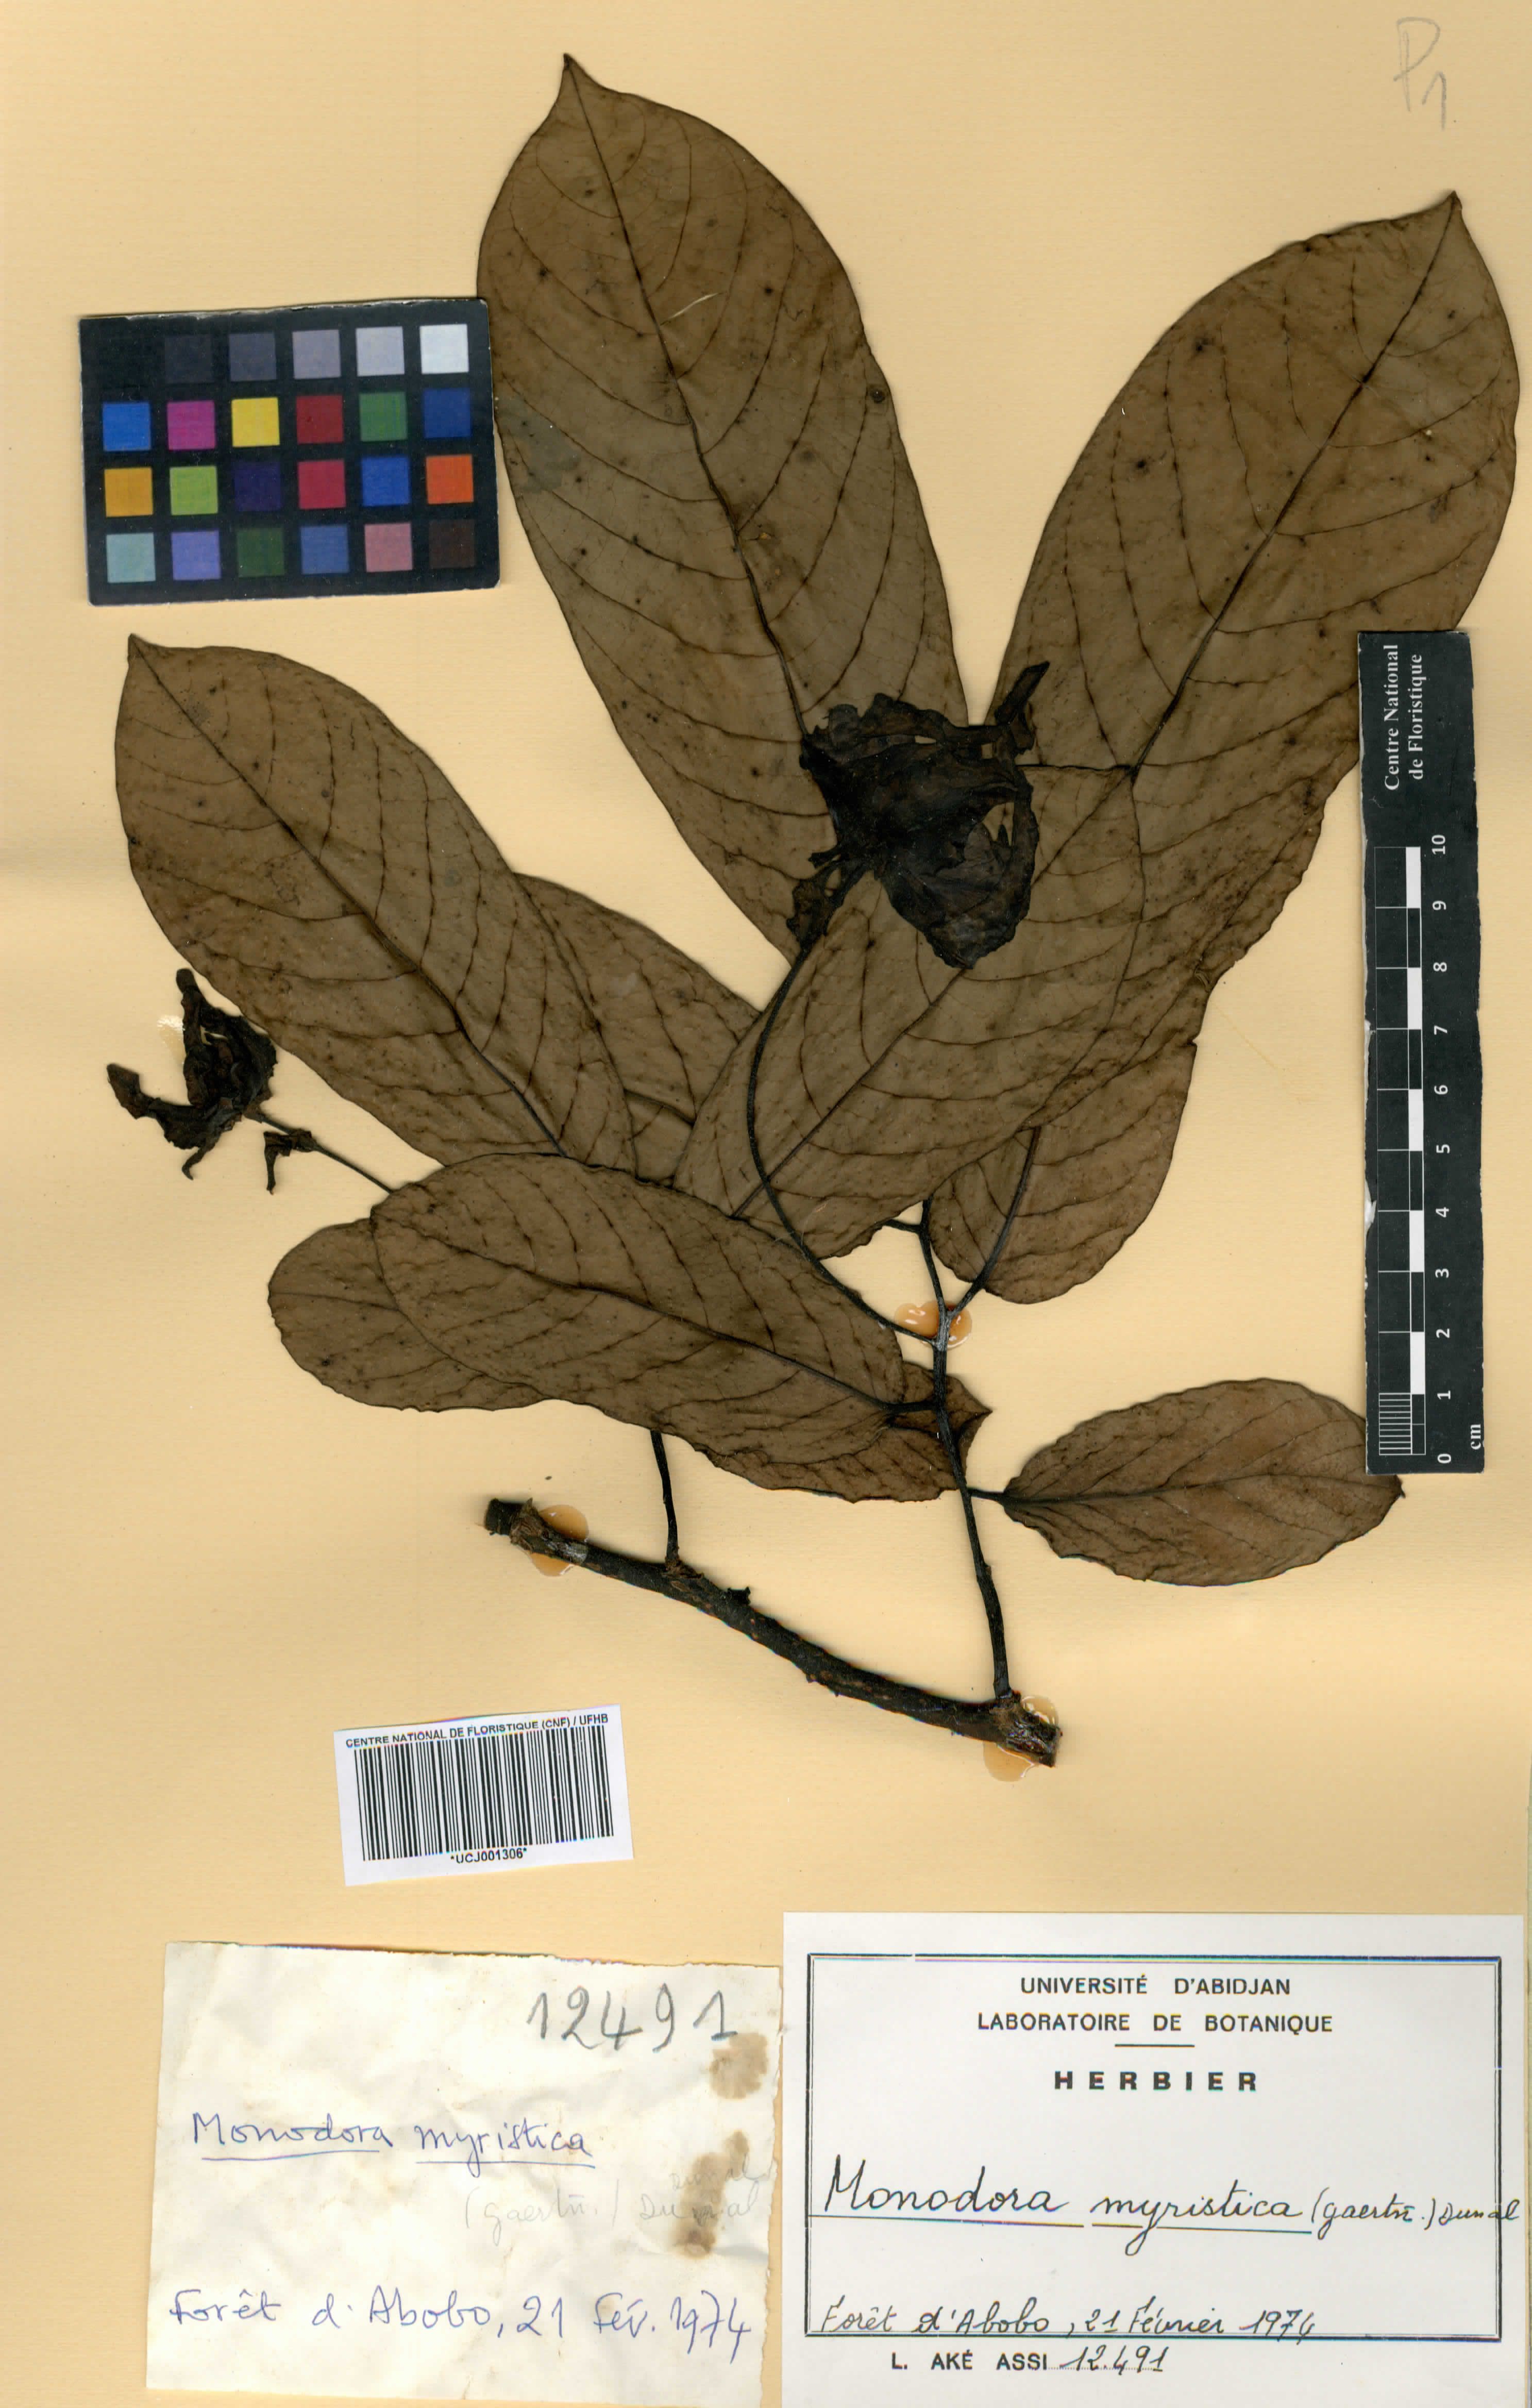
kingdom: Plantae
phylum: Tracheophyta
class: Magnoliopsida
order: Magnoliales
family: Annonaceae
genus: Monodora
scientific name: Monodora myristica
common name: African nutmeg
